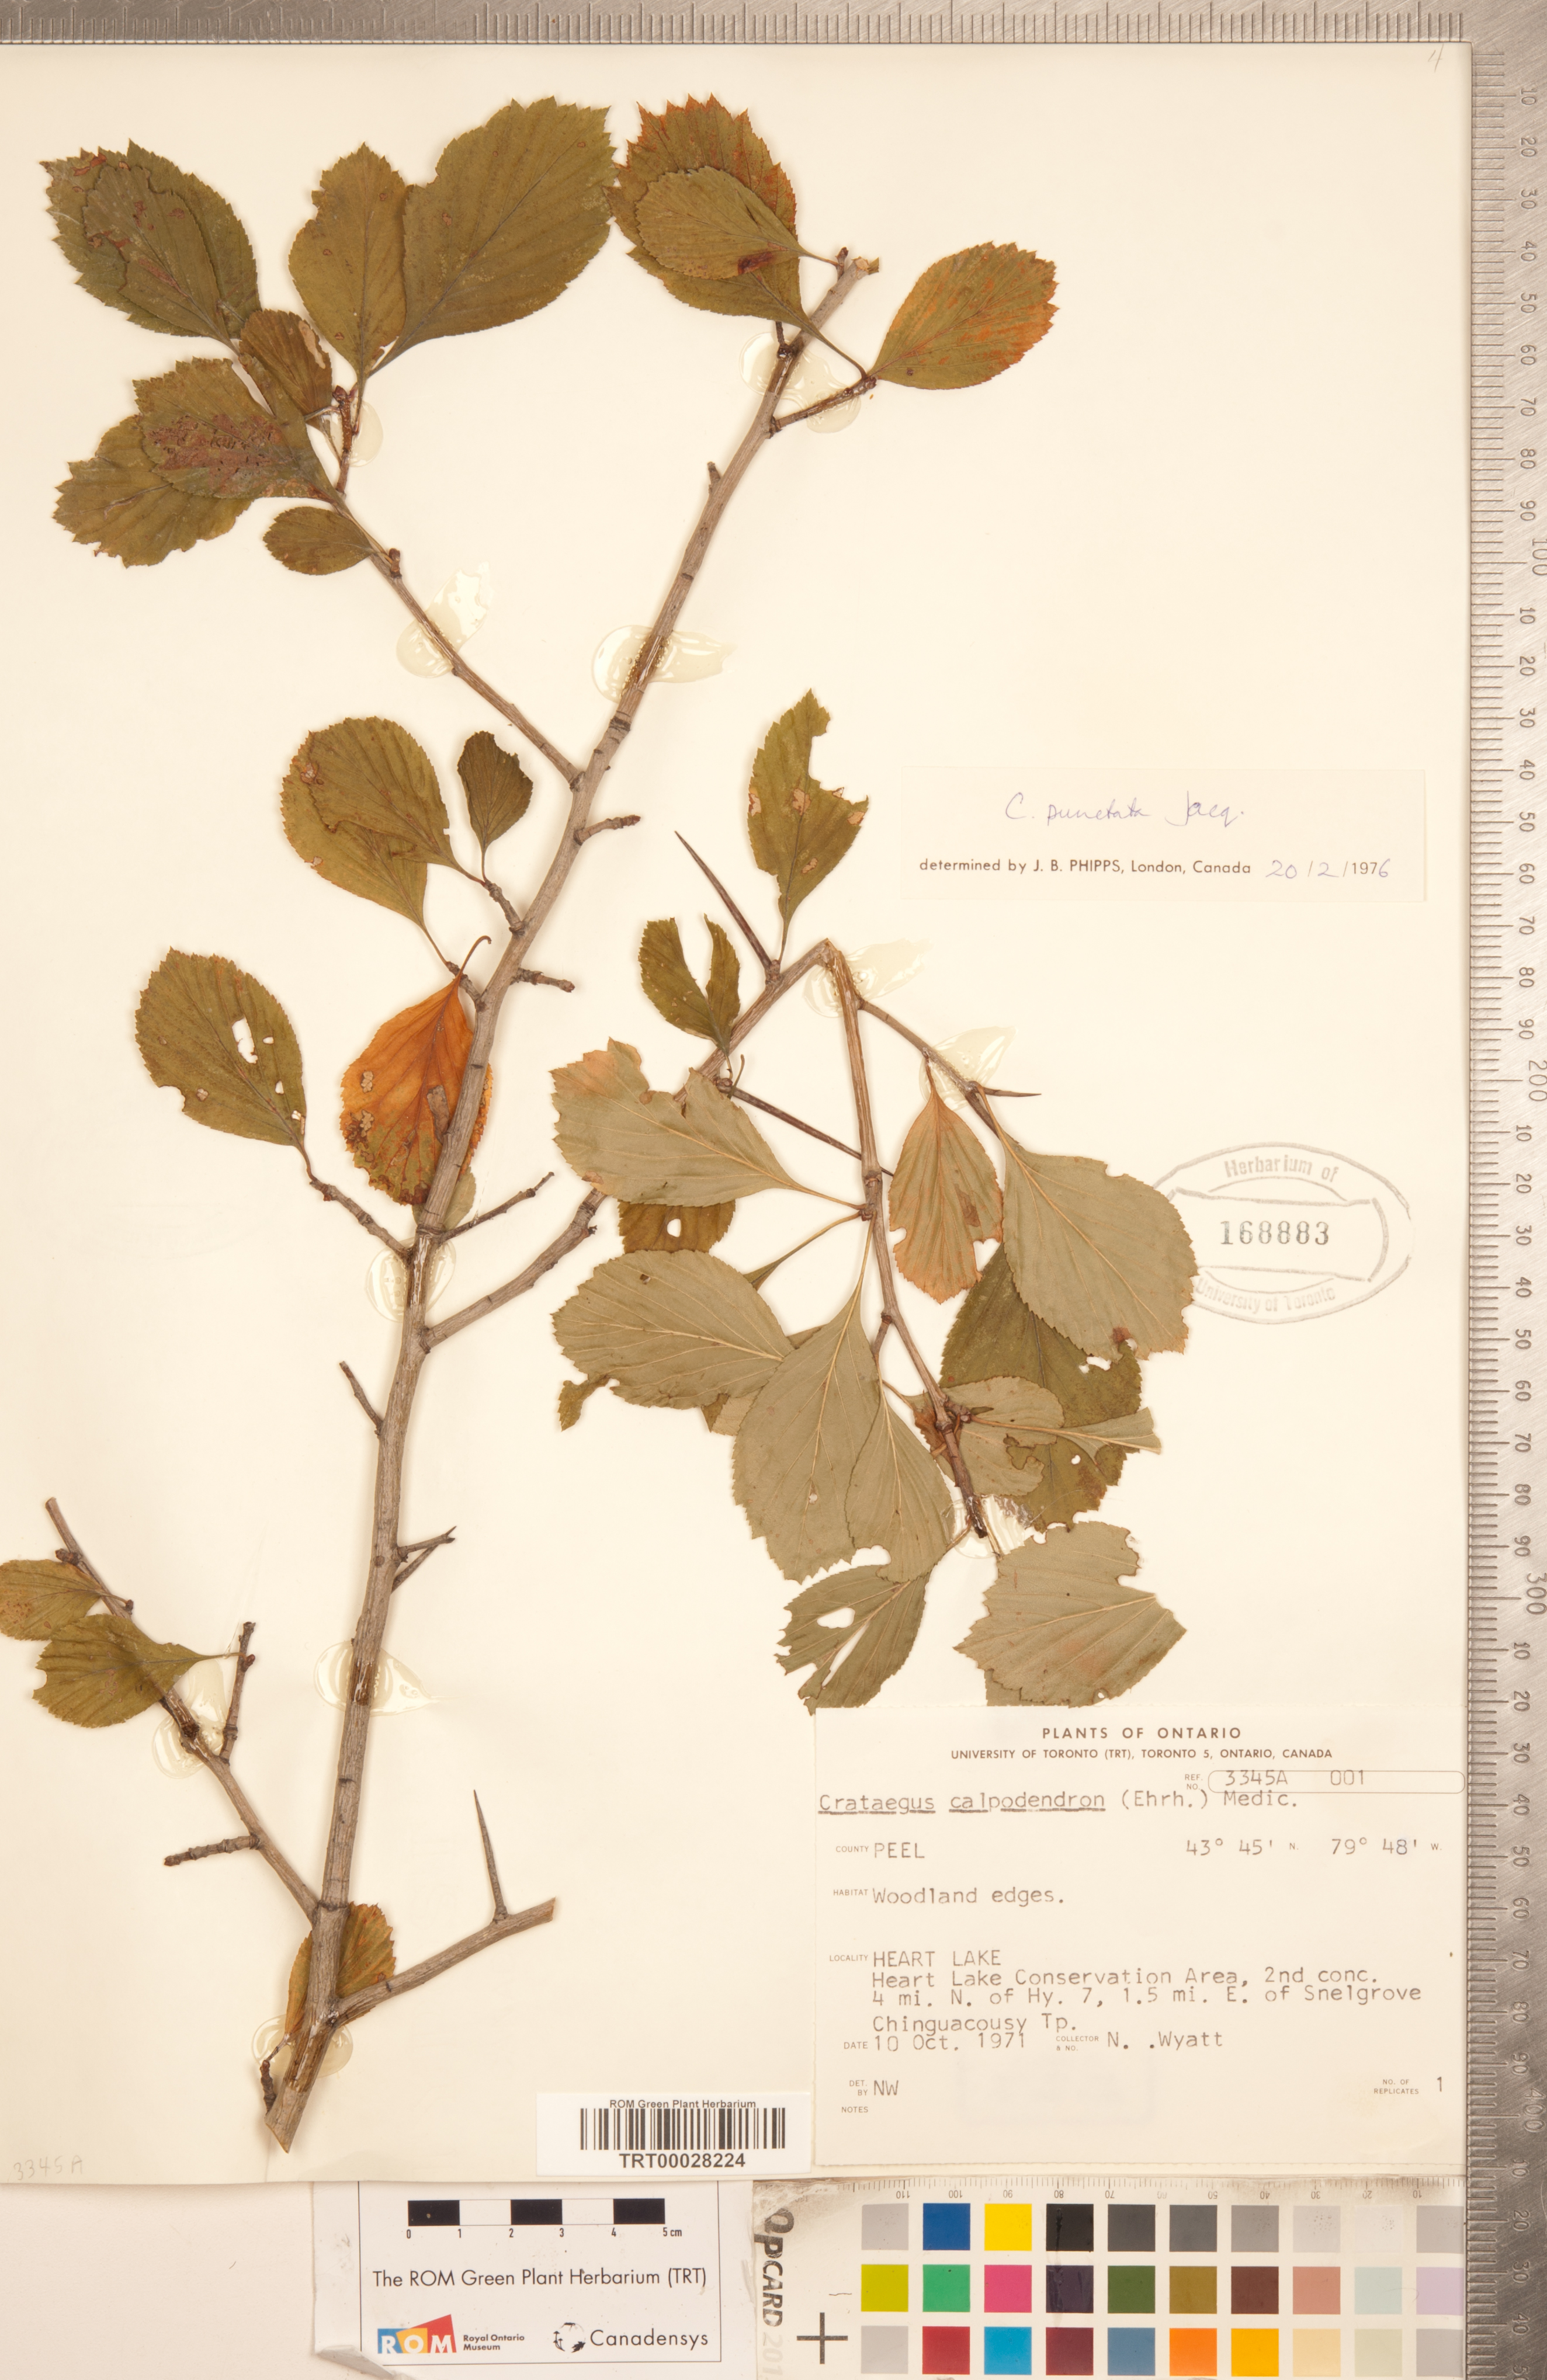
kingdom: Plantae
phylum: Tracheophyta
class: Magnoliopsida
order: Rosales
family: Rosaceae
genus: Crataegus
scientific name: Crataegus punctata
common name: Dotted hawthorn
